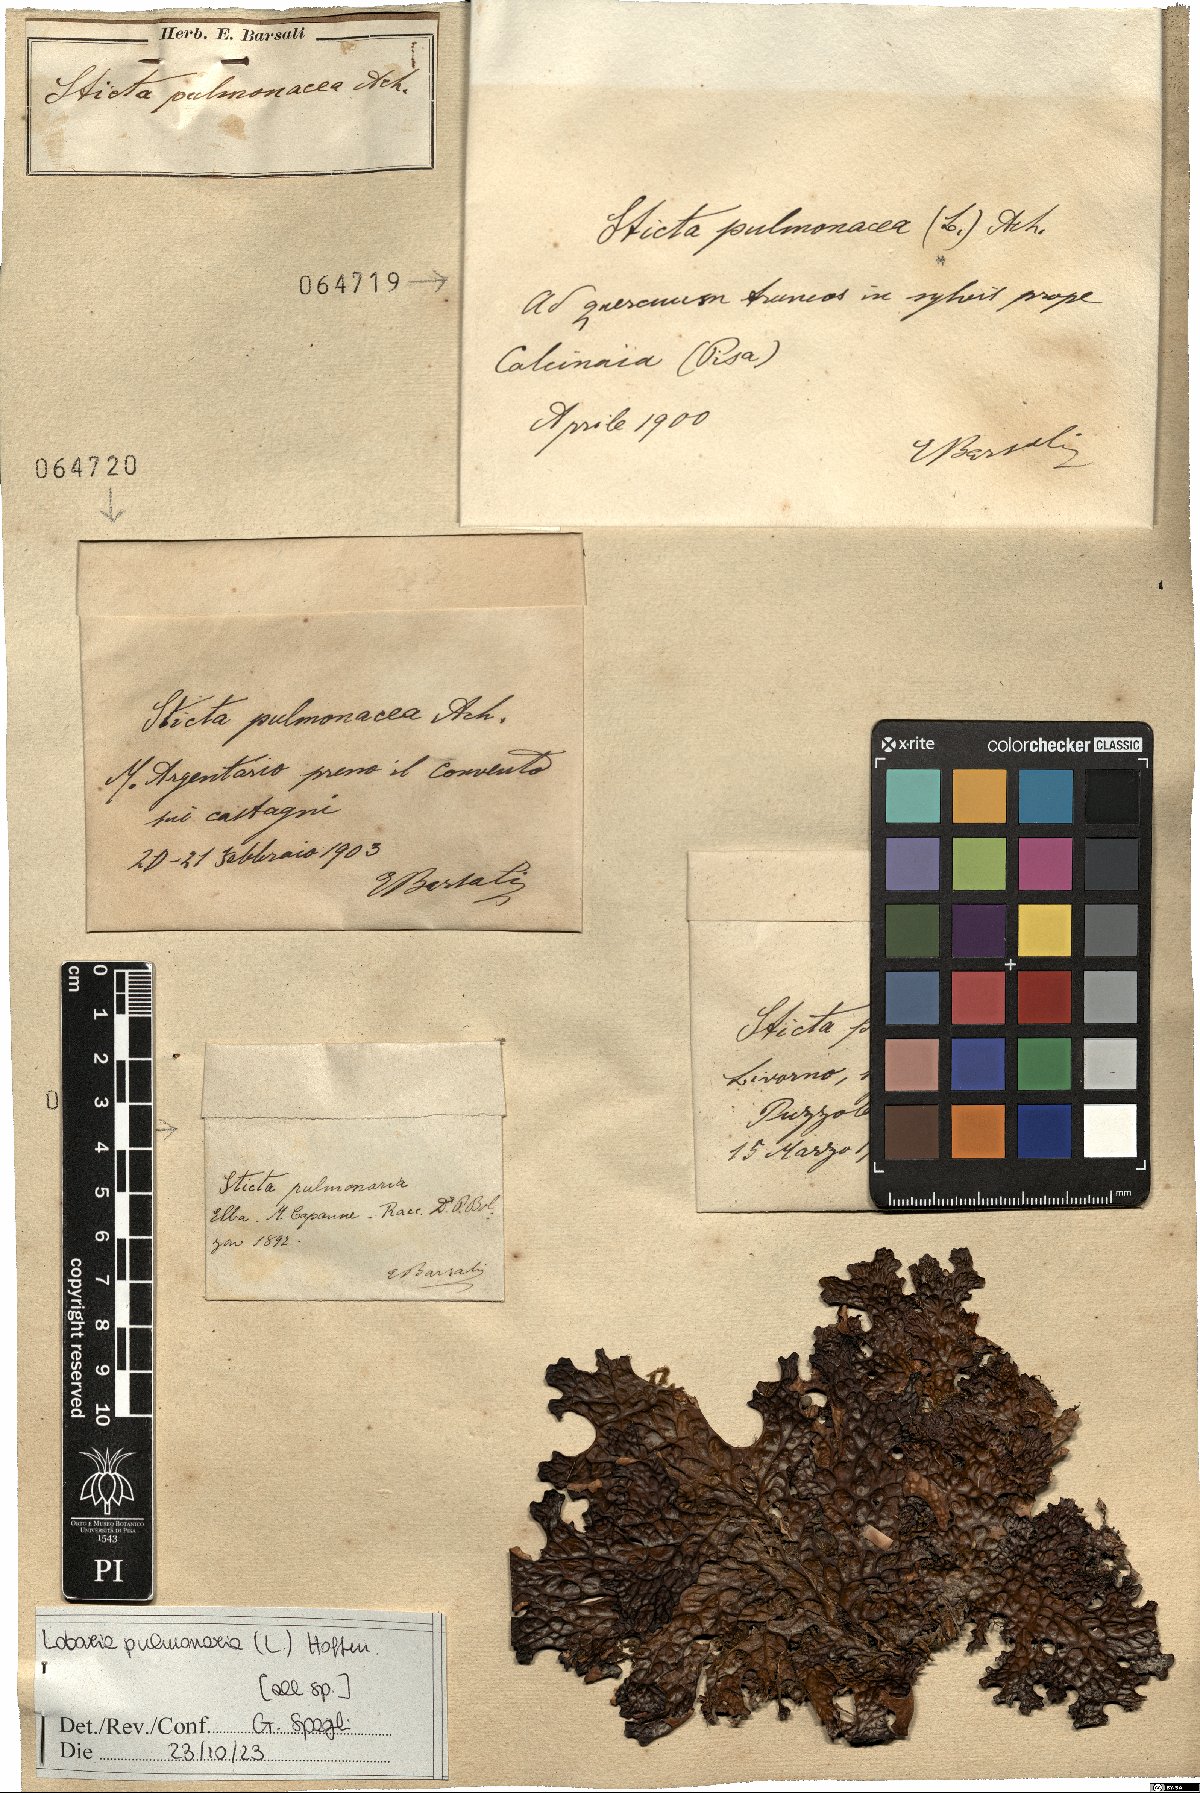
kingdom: Fungi
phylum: Ascomycota
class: Lecanoromycetes
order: Peltigerales
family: Lobariaceae
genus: Lobaria
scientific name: Lobaria pulmonaria
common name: Lungwort
